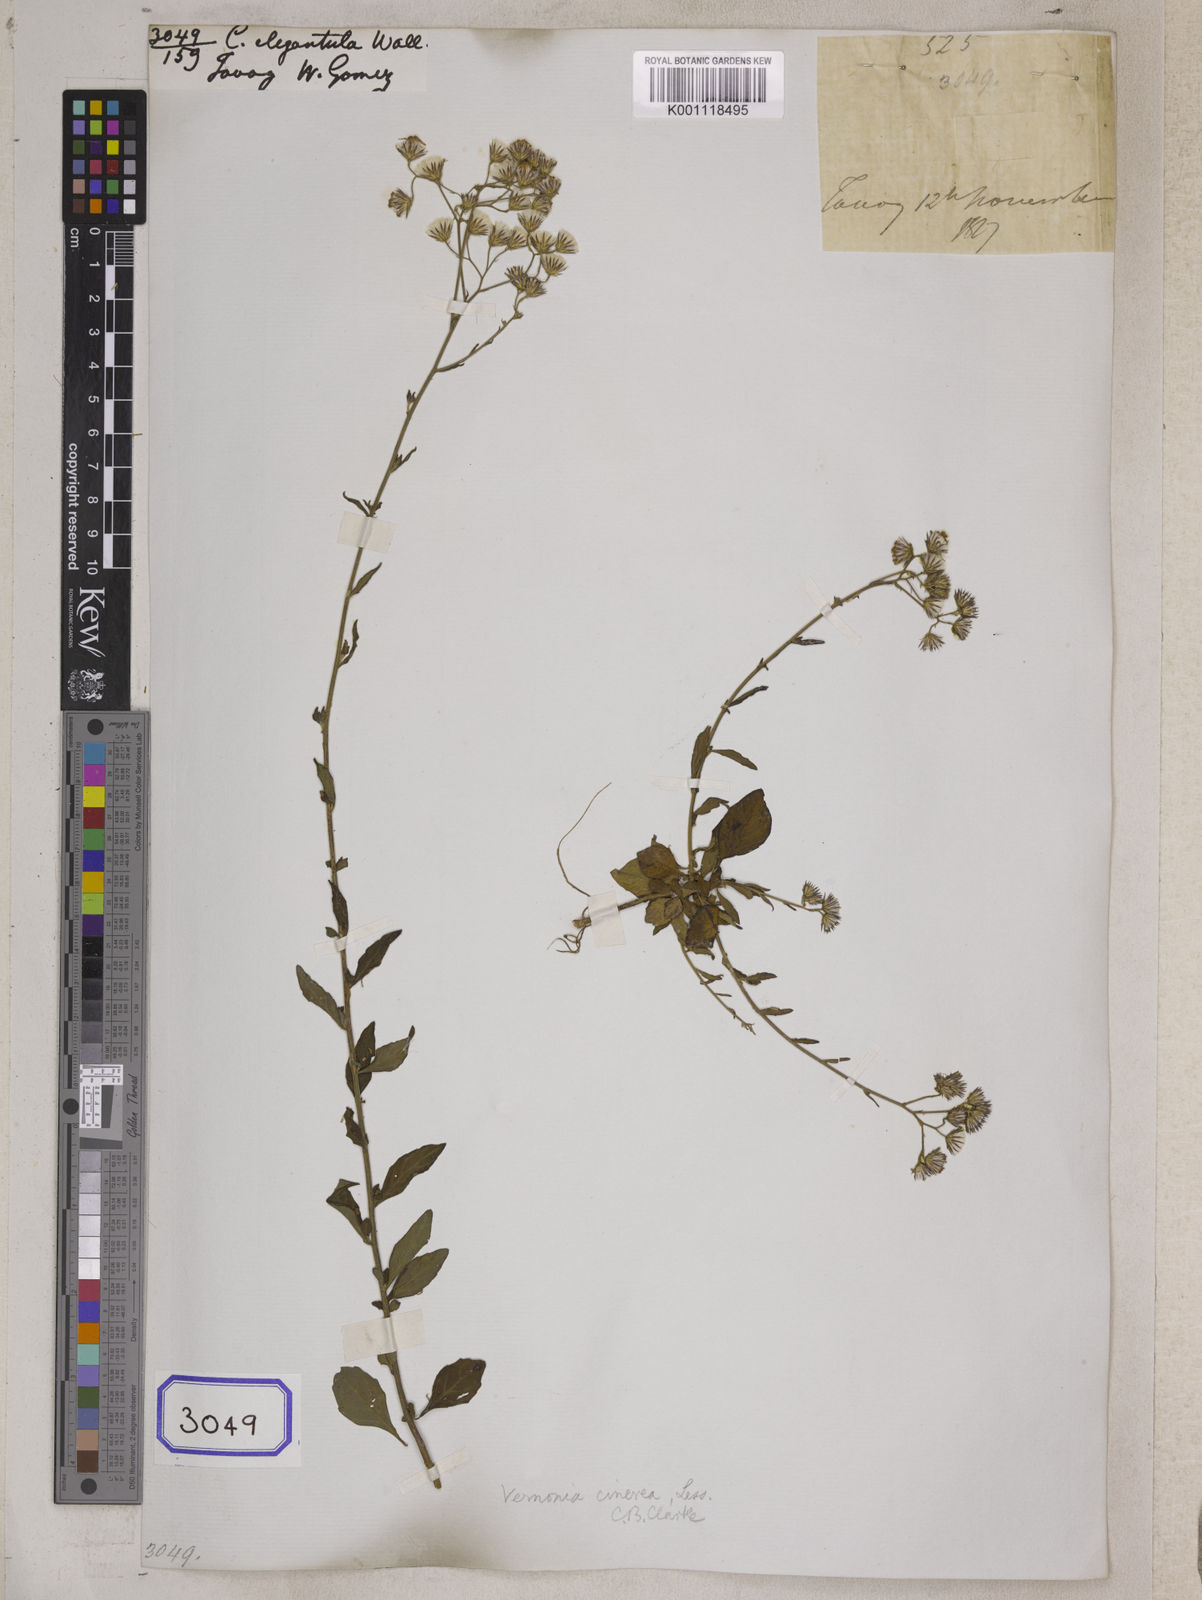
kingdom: Plantae
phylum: Tracheophyta
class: Magnoliopsida
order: Asterales
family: Asteraceae
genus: Cyanthillium
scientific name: Cyanthillium cinereum
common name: Little ironweed
